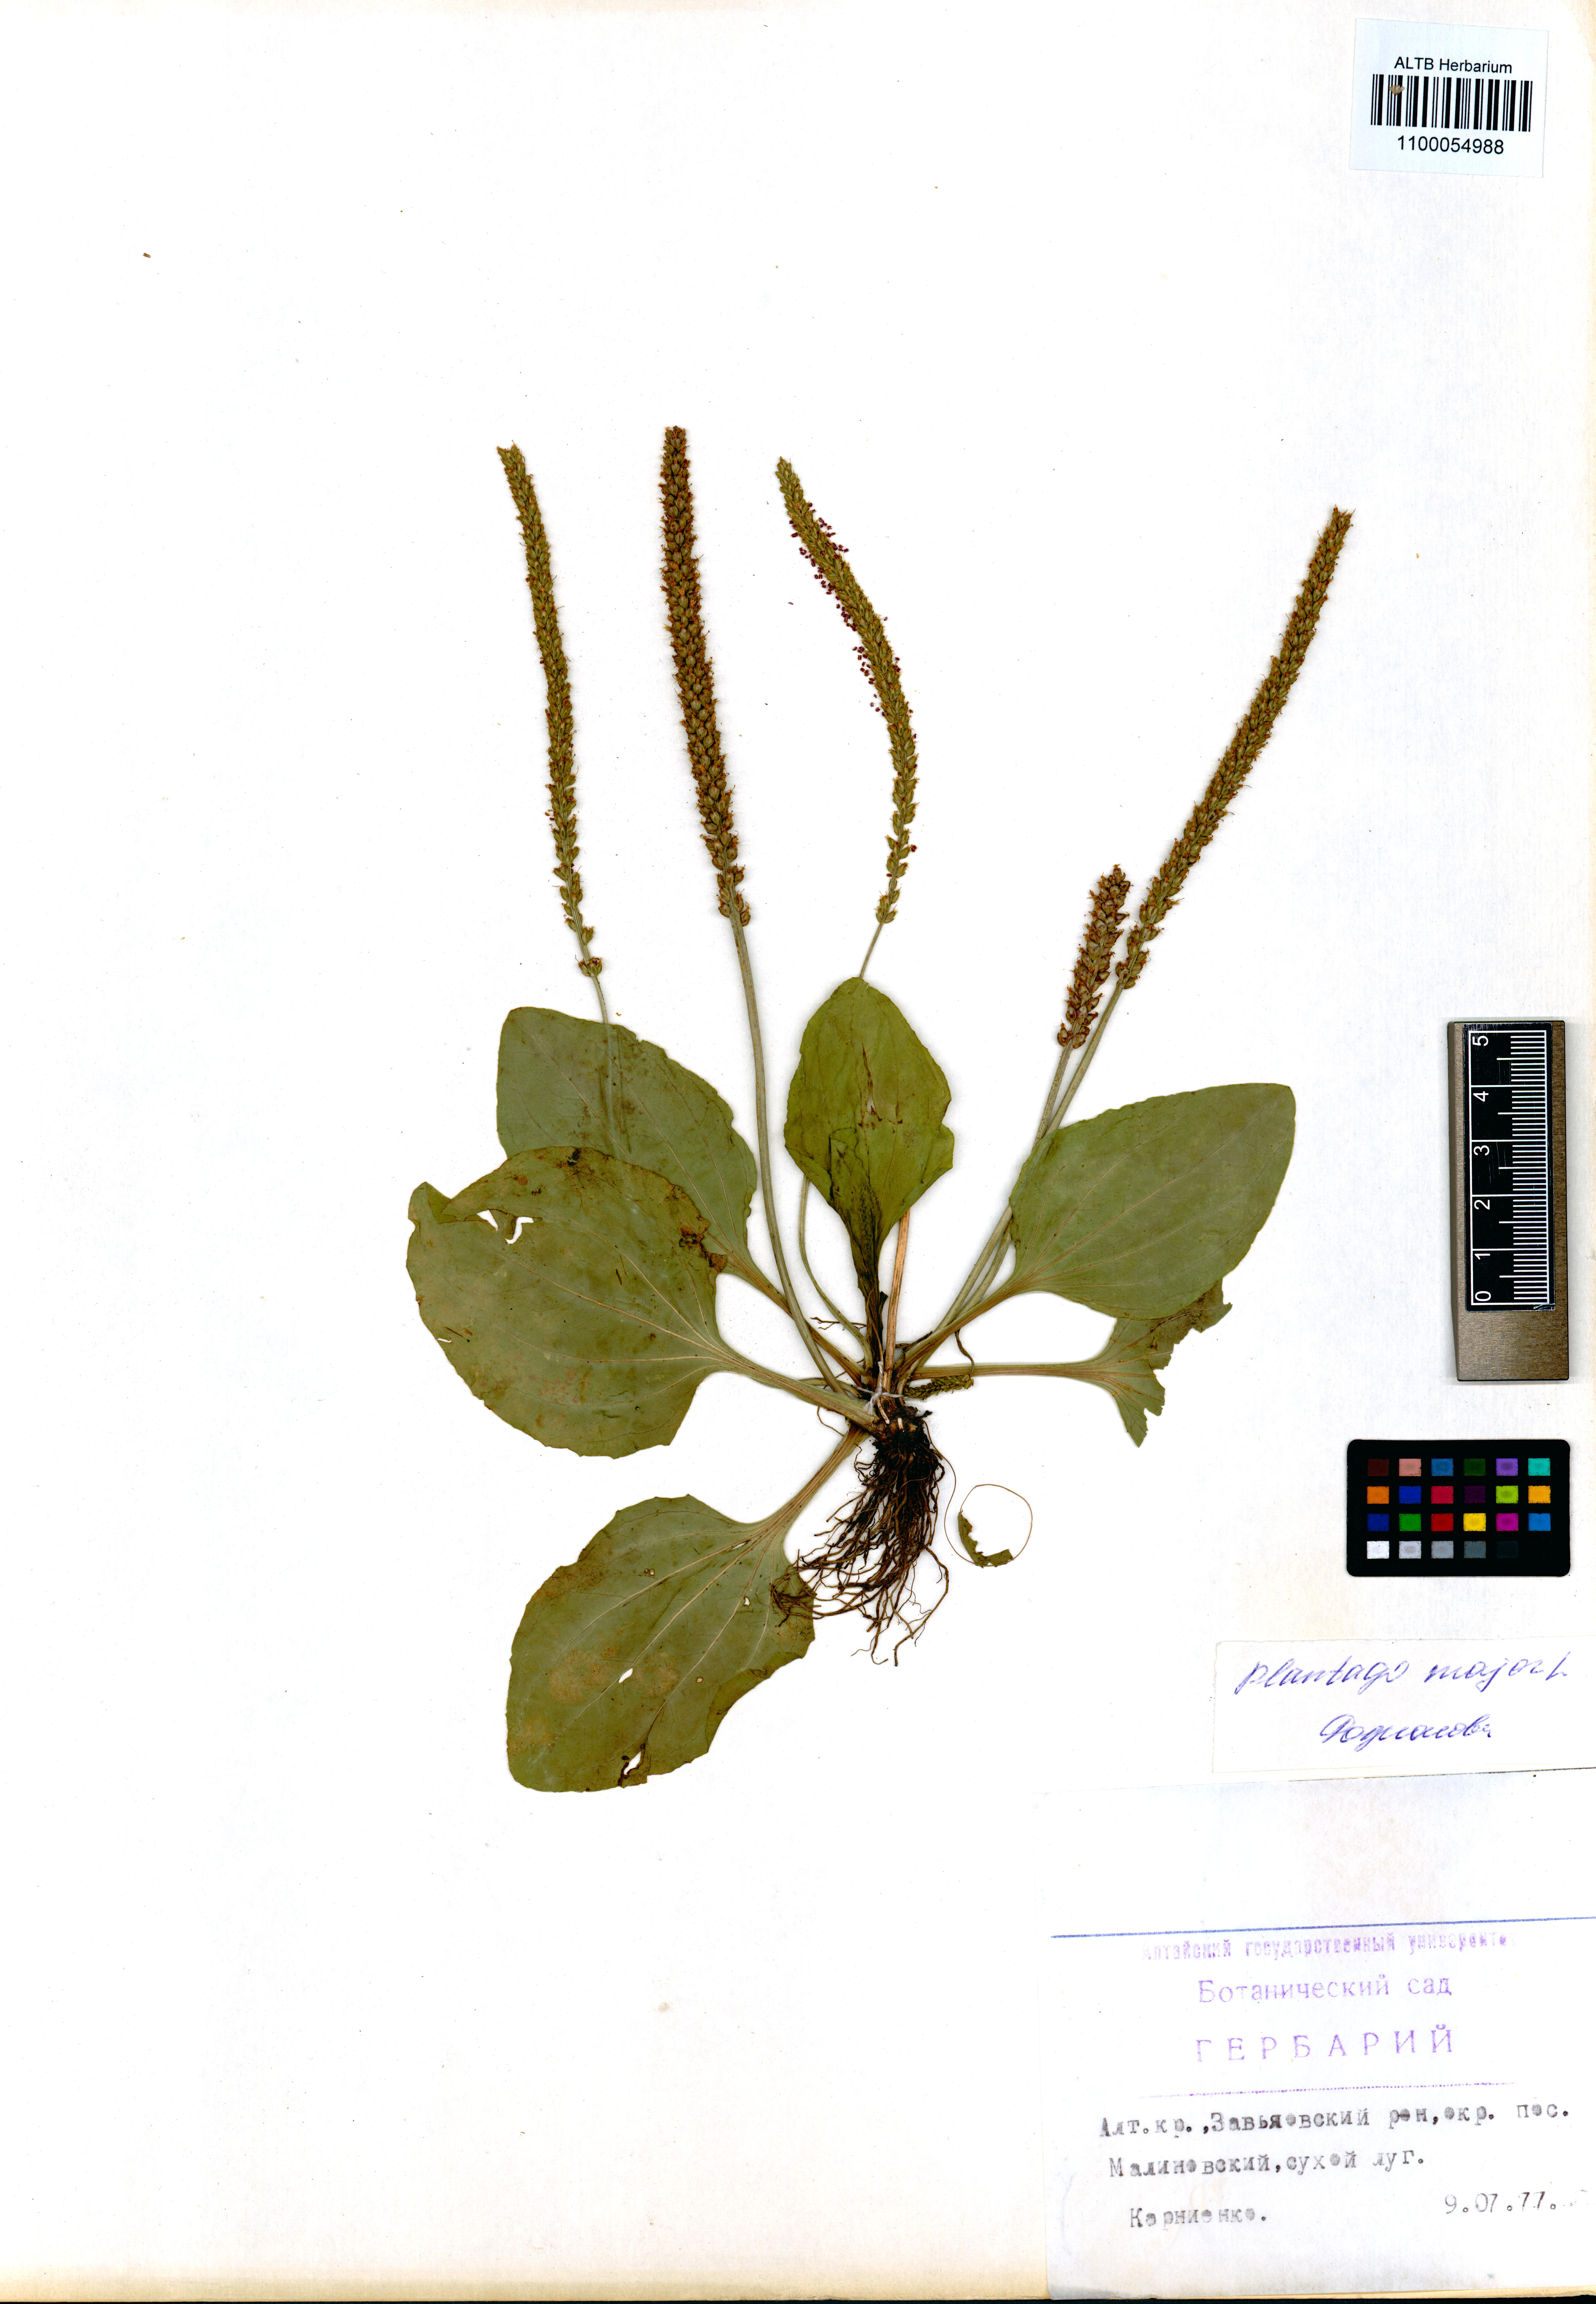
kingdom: Plantae
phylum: Tracheophyta
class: Magnoliopsida
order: Lamiales
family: Plantaginaceae
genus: Plantago
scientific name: Plantago major
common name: Common plantain
